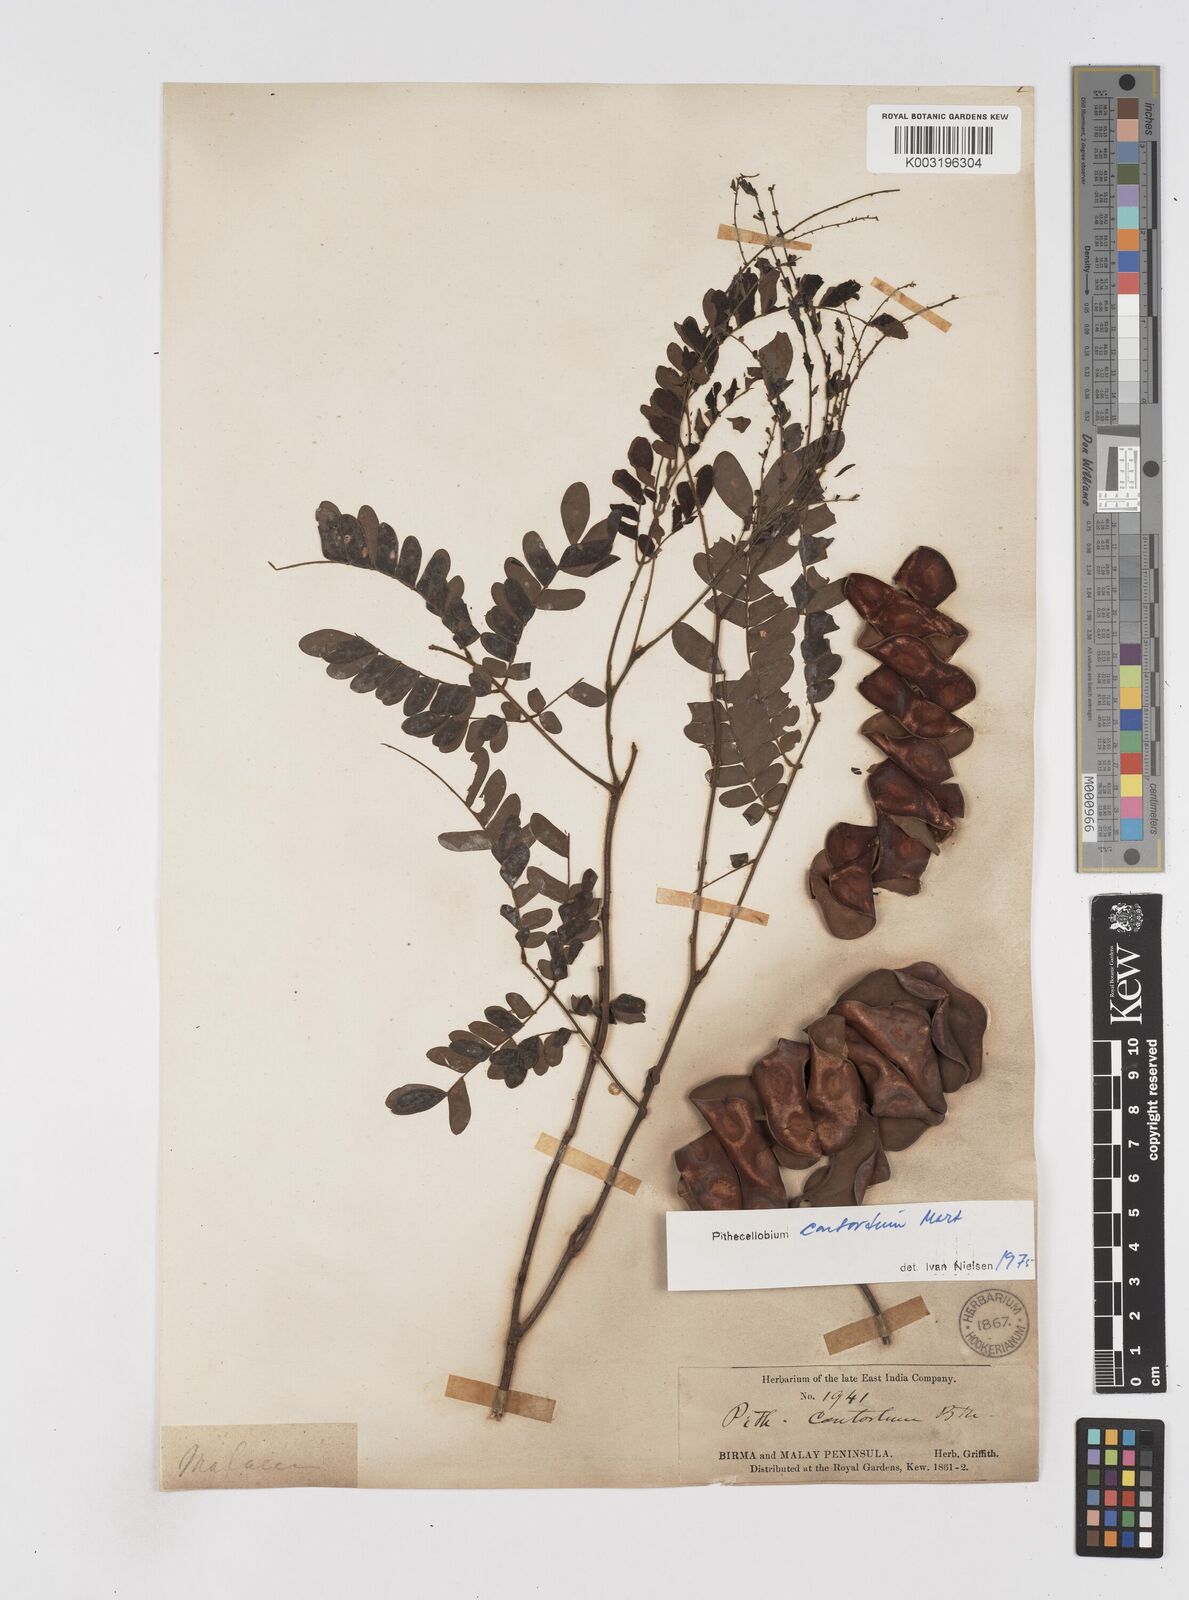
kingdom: Plantae
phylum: Tracheophyta
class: Magnoliopsida
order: Fabales
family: Fabaceae
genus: Archidendron
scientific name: Archidendron contortum
